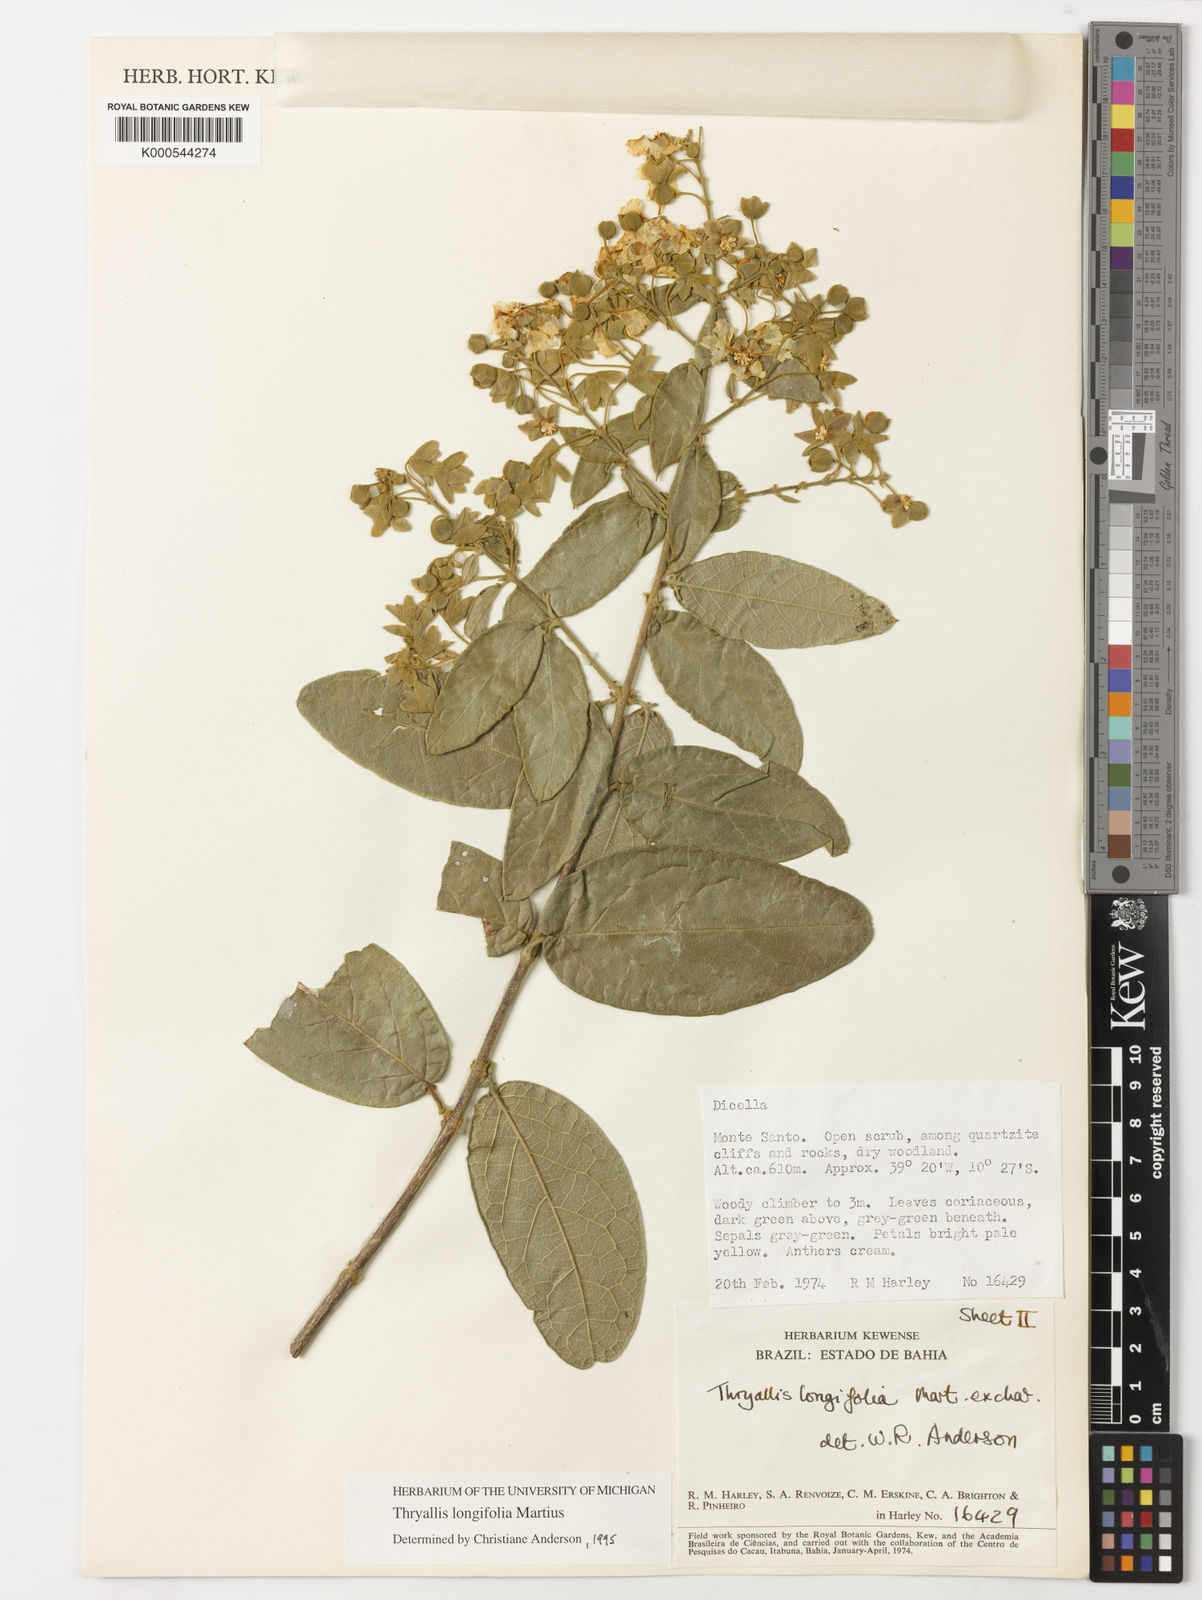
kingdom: Plantae
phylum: Tracheophyta
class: Magnoliopsida
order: Malpighiales
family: Malpighiaceae
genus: Thryallis
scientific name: Thryallis longifolia
